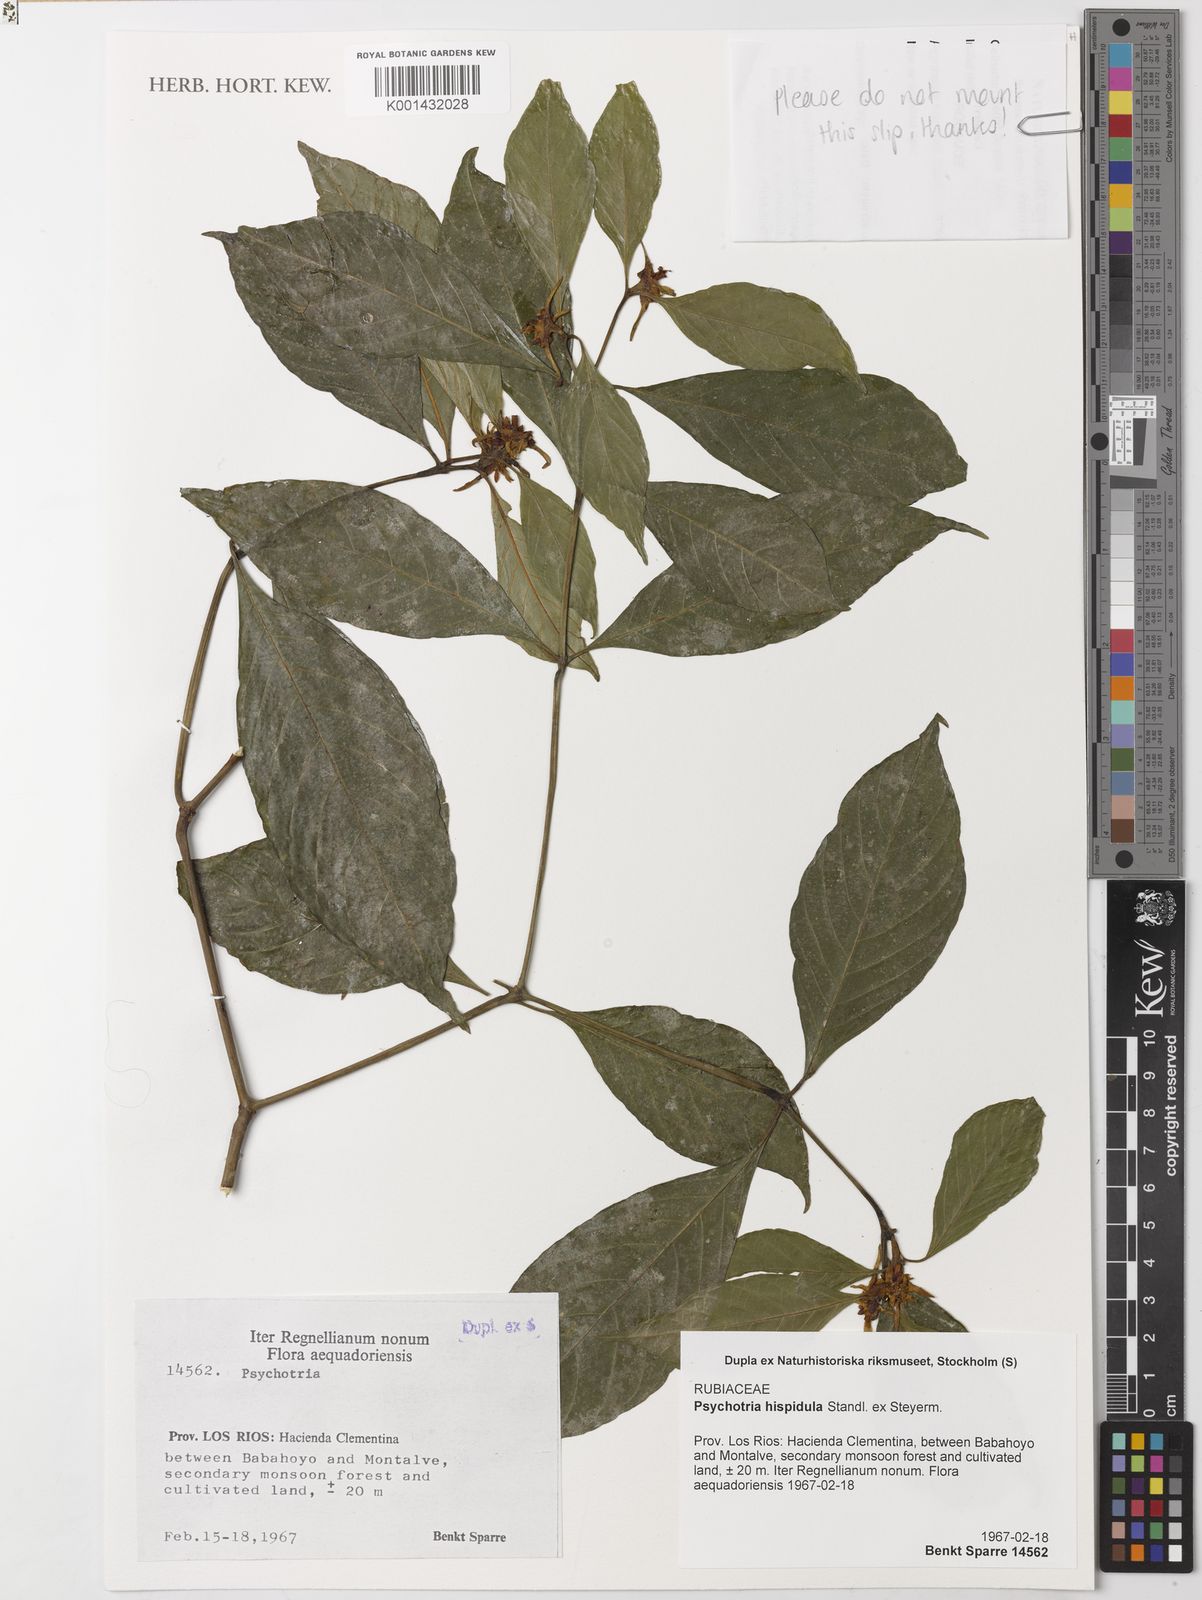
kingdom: Plantae
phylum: Tracheophyta
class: Magnoliopsida
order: Gentianales
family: Rubiaceae
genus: Palicourea
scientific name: Palicourea longiinvolucrata
